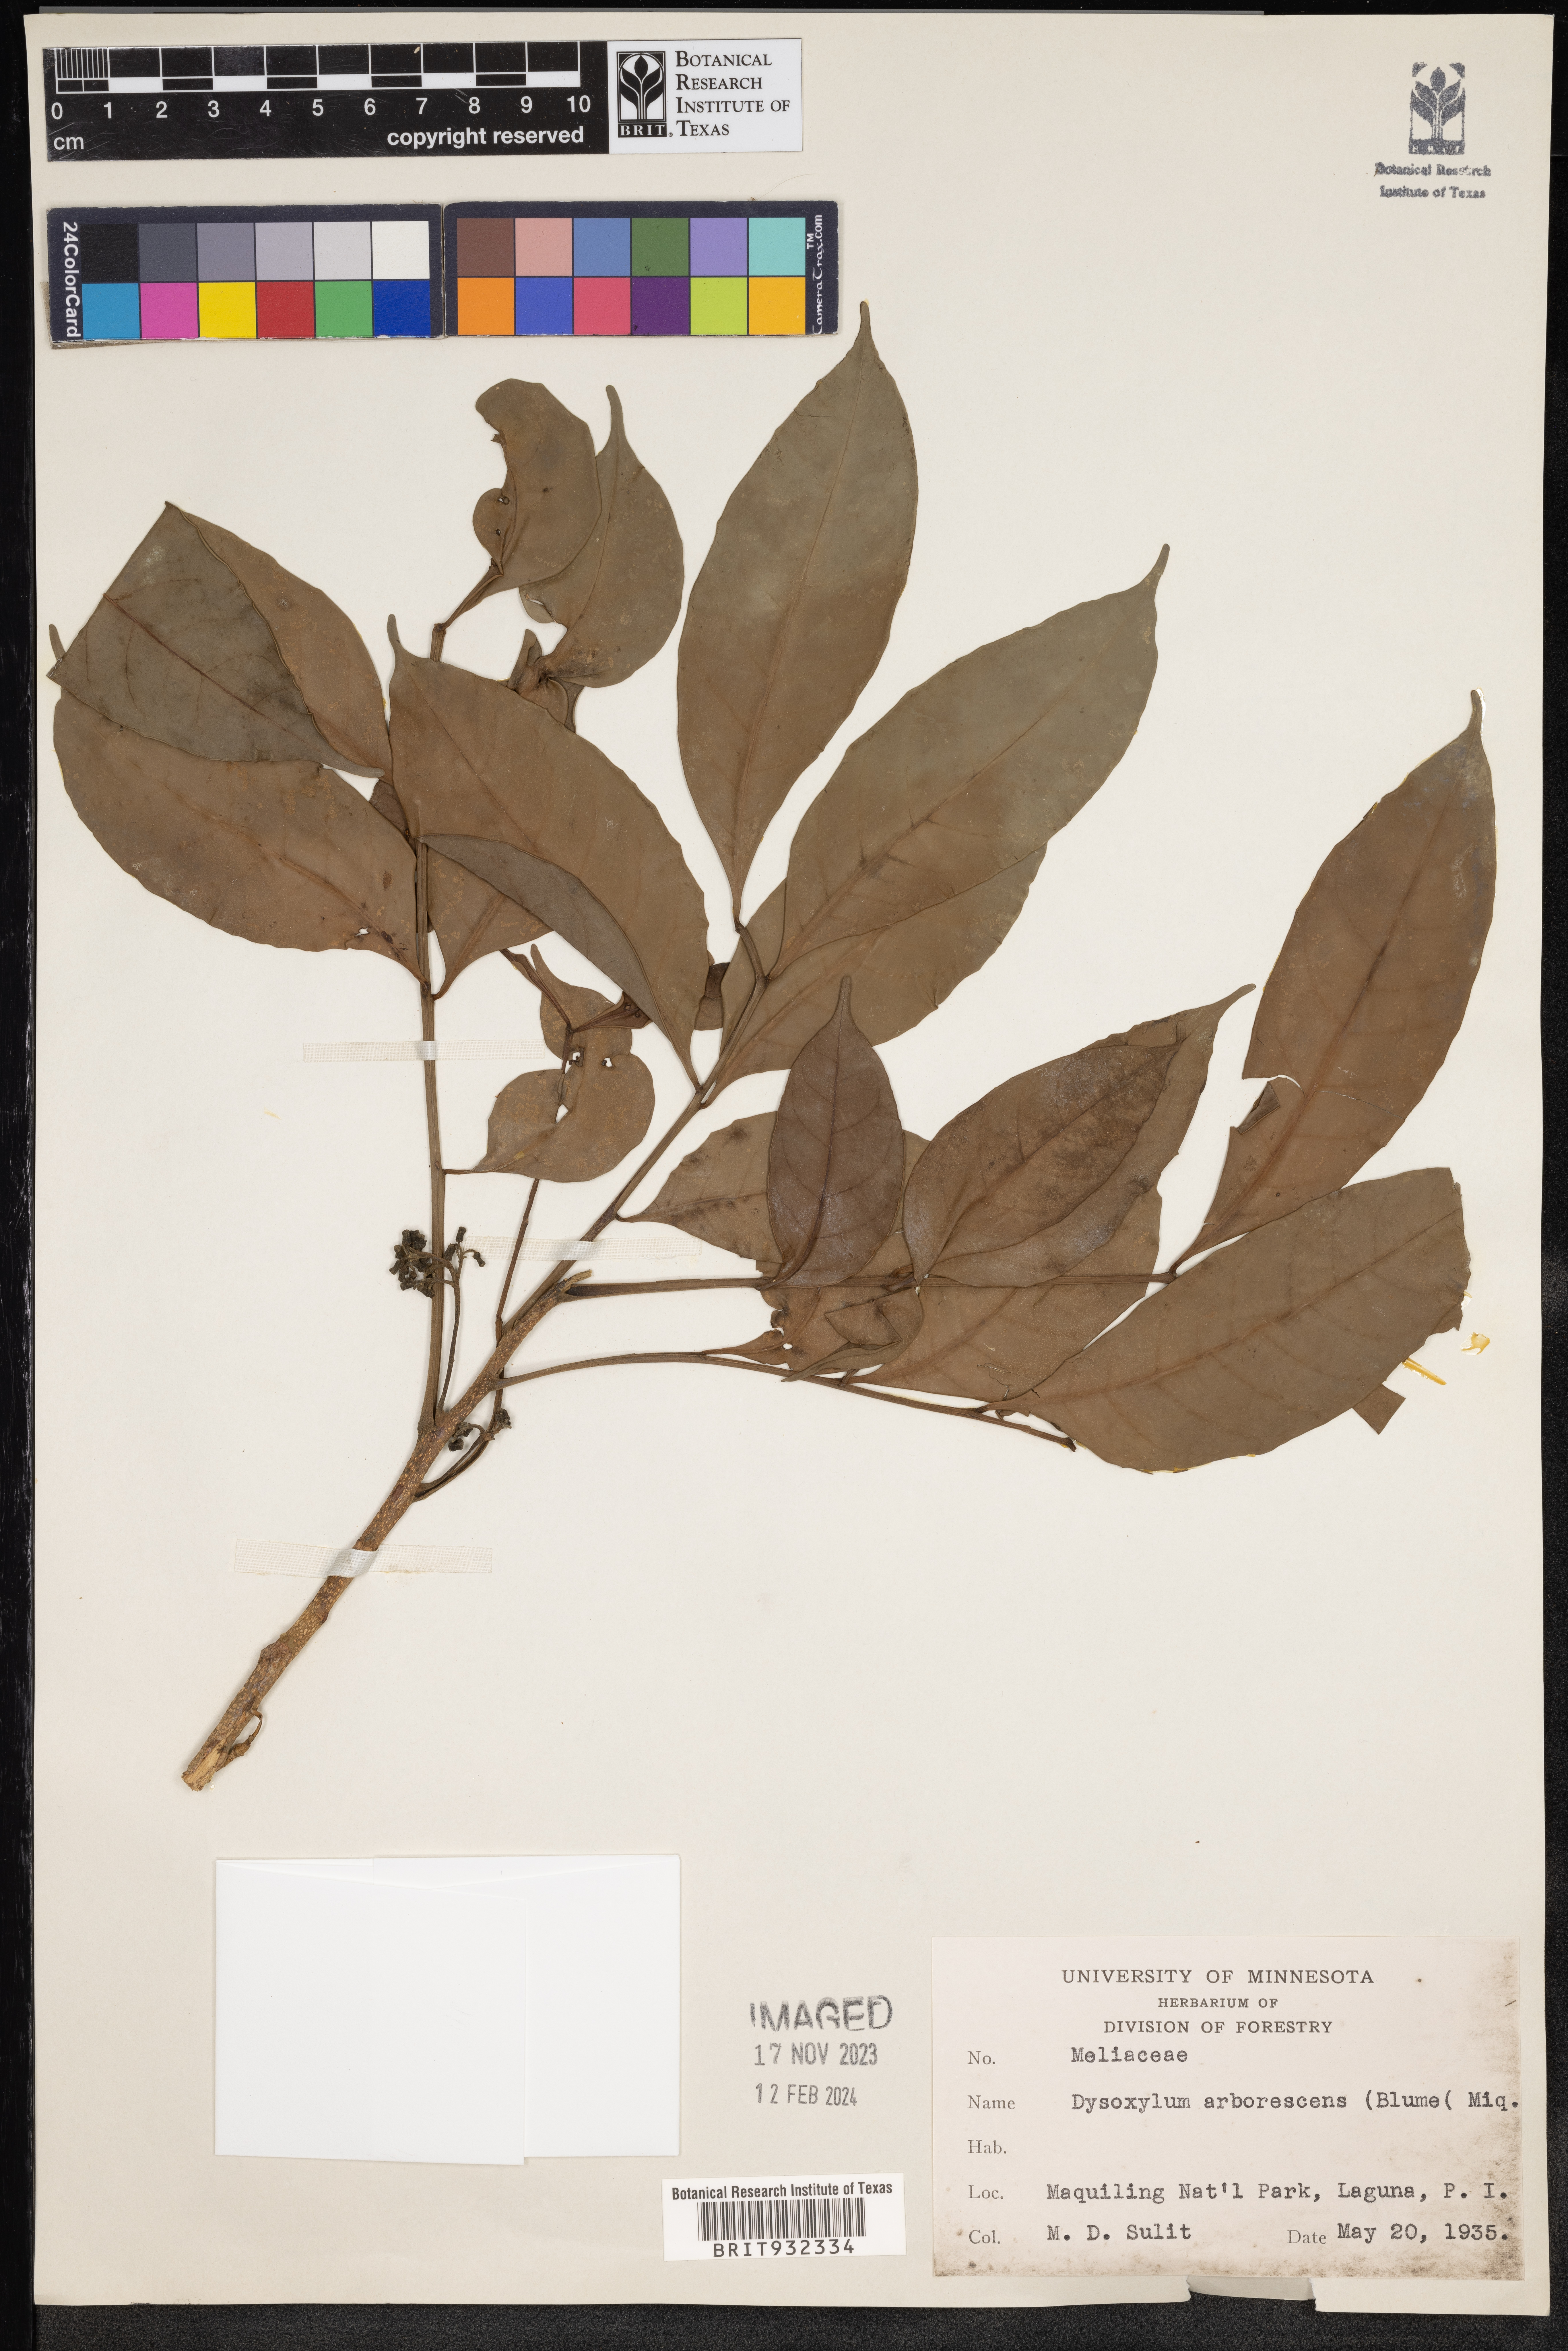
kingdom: Plantae
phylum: Tracheophyta
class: Magnoliopsida
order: Sapindales
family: Meliaceae
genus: Dysoxylum
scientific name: Dysoxylum
